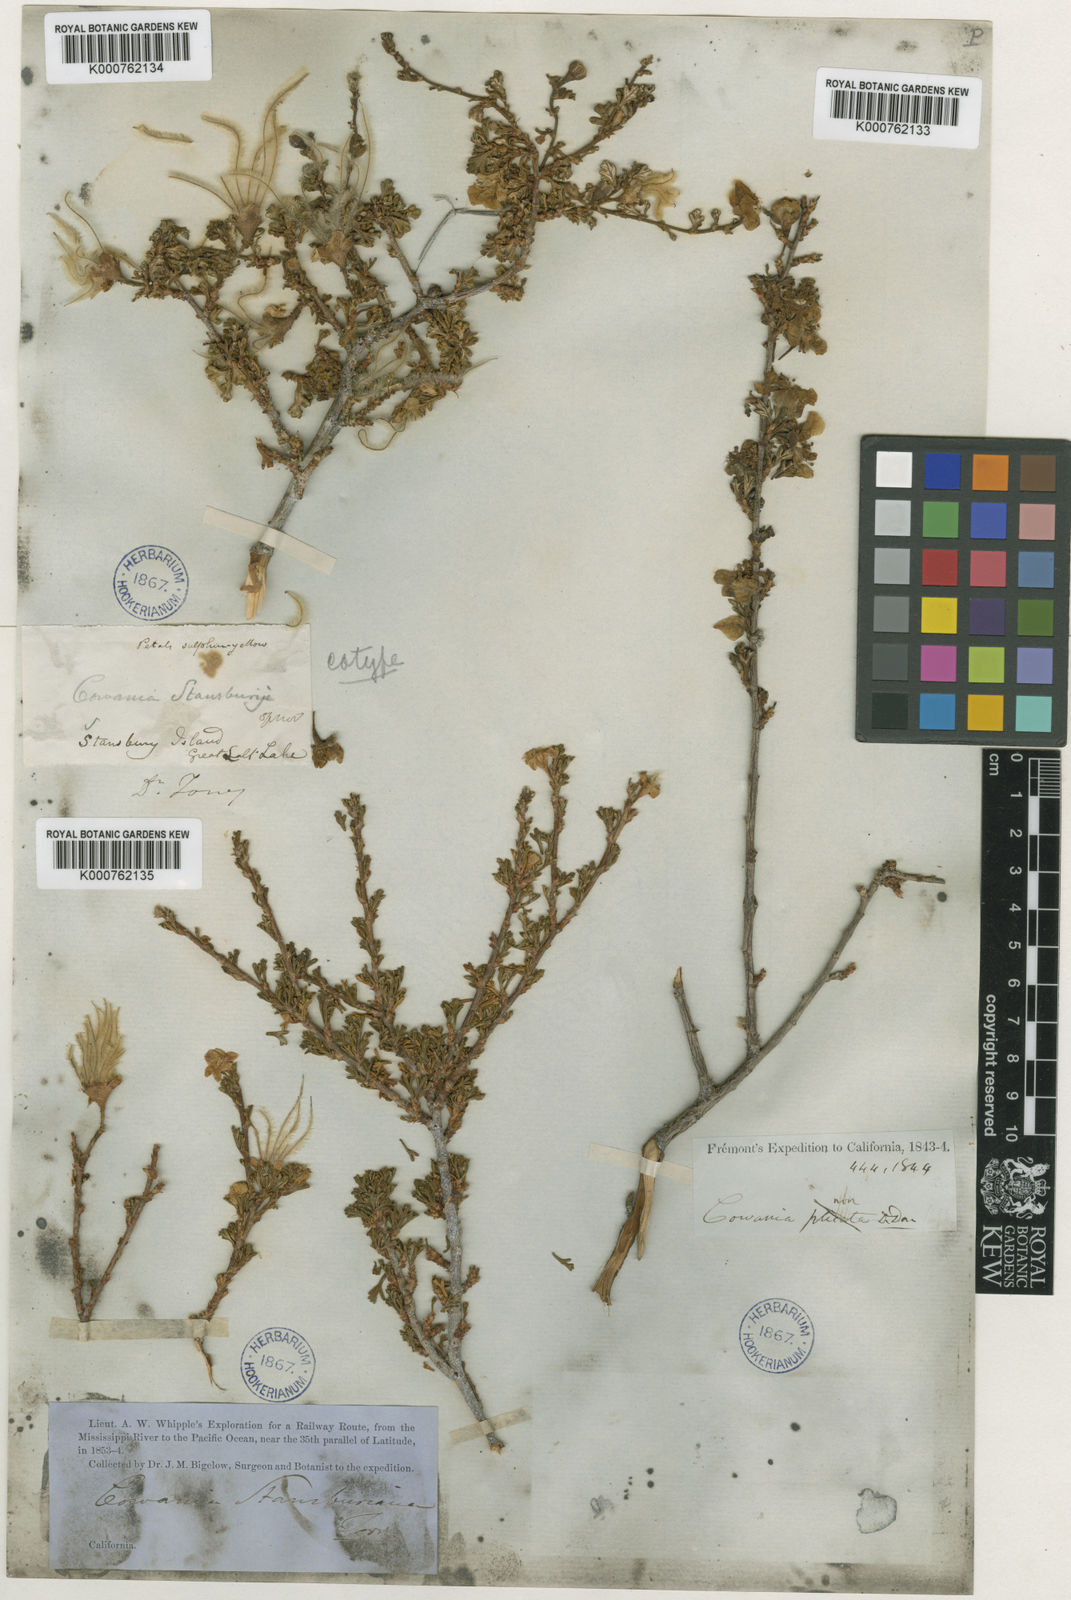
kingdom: Plantae
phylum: Tracheophyta
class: Magnoliopsida
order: Rosales
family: Rosaceae
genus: Purshia
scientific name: Purshia
